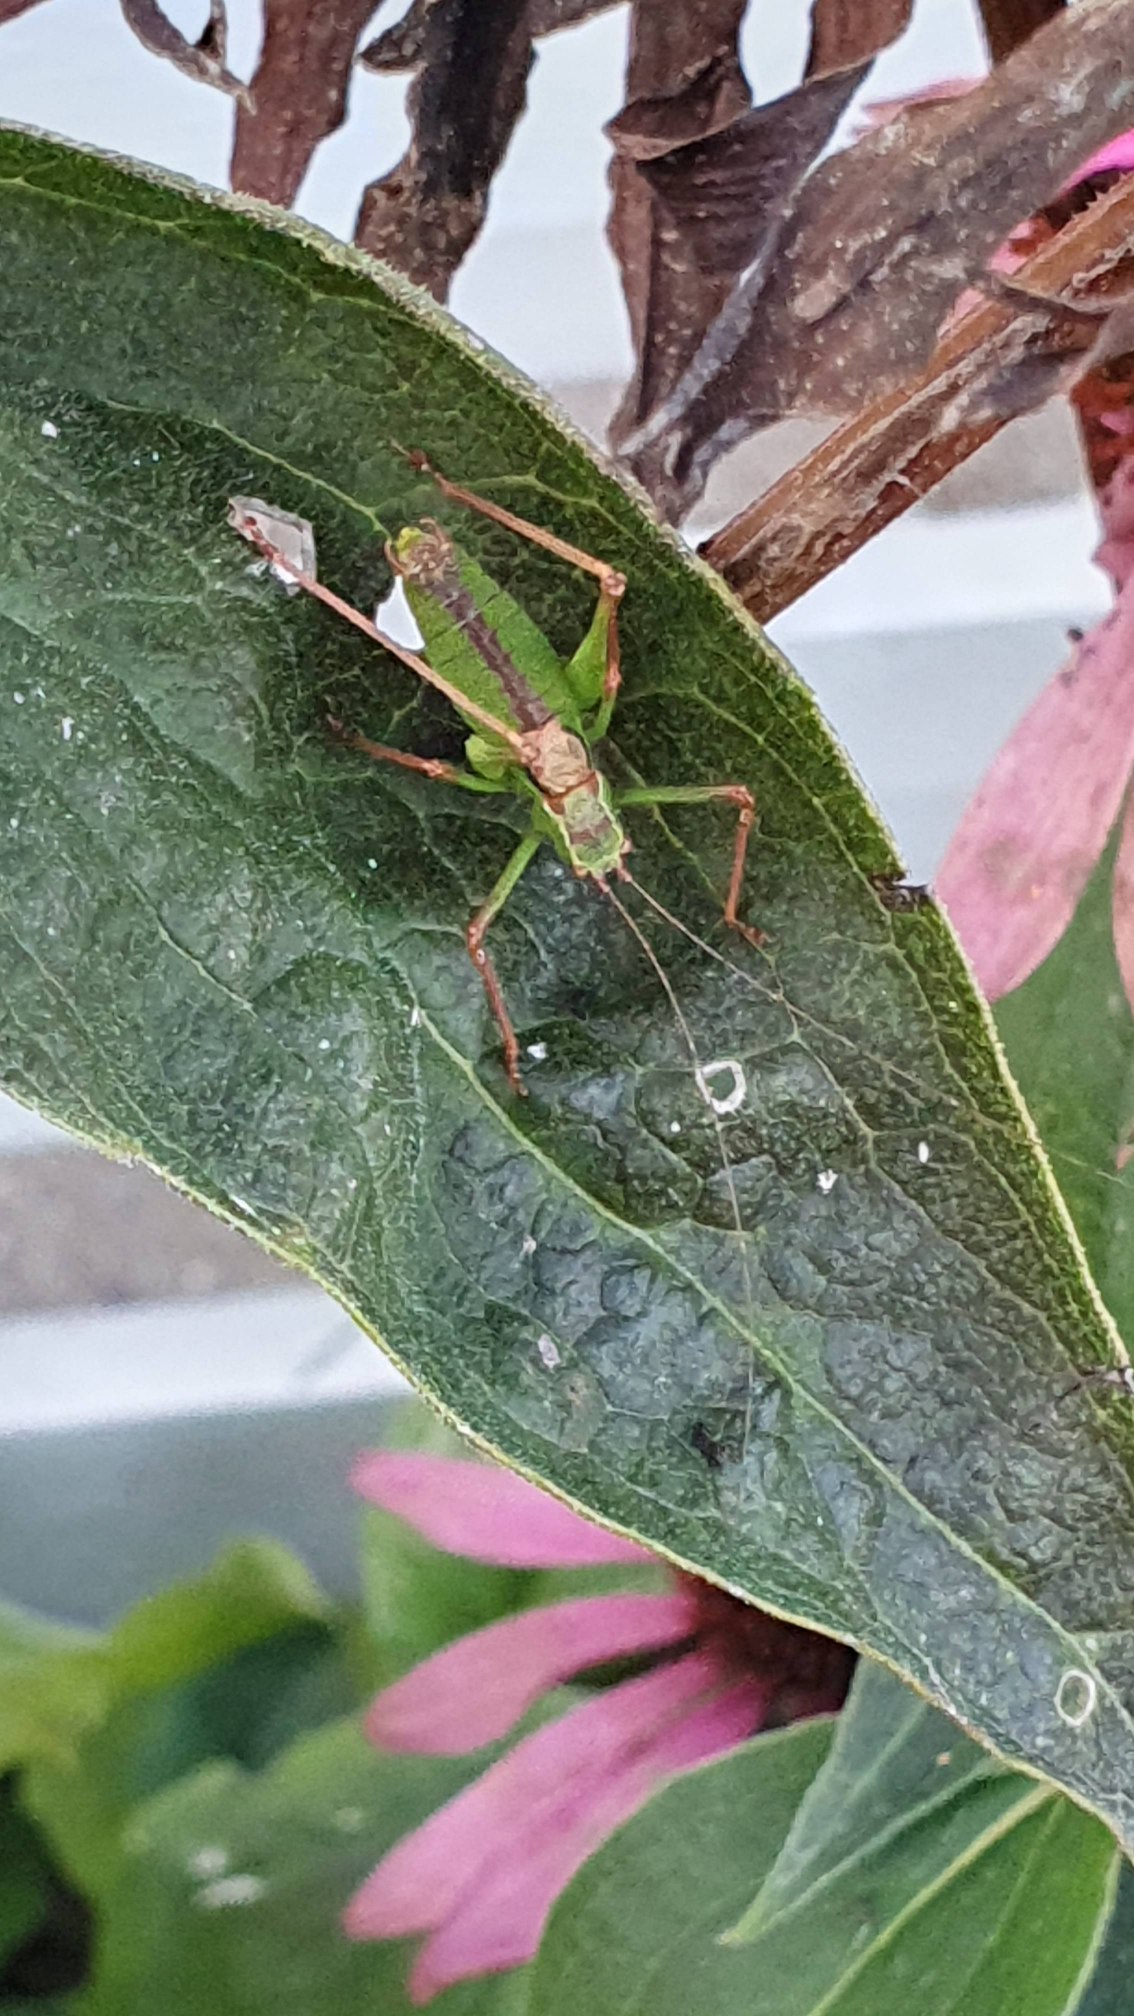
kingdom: Animalia
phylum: Arthropoda
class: Insecta
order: Orthoptera
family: Tettigoniidae
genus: Leptophyes
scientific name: Leptophyes punctatissima
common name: Krumknivgræshoppe
